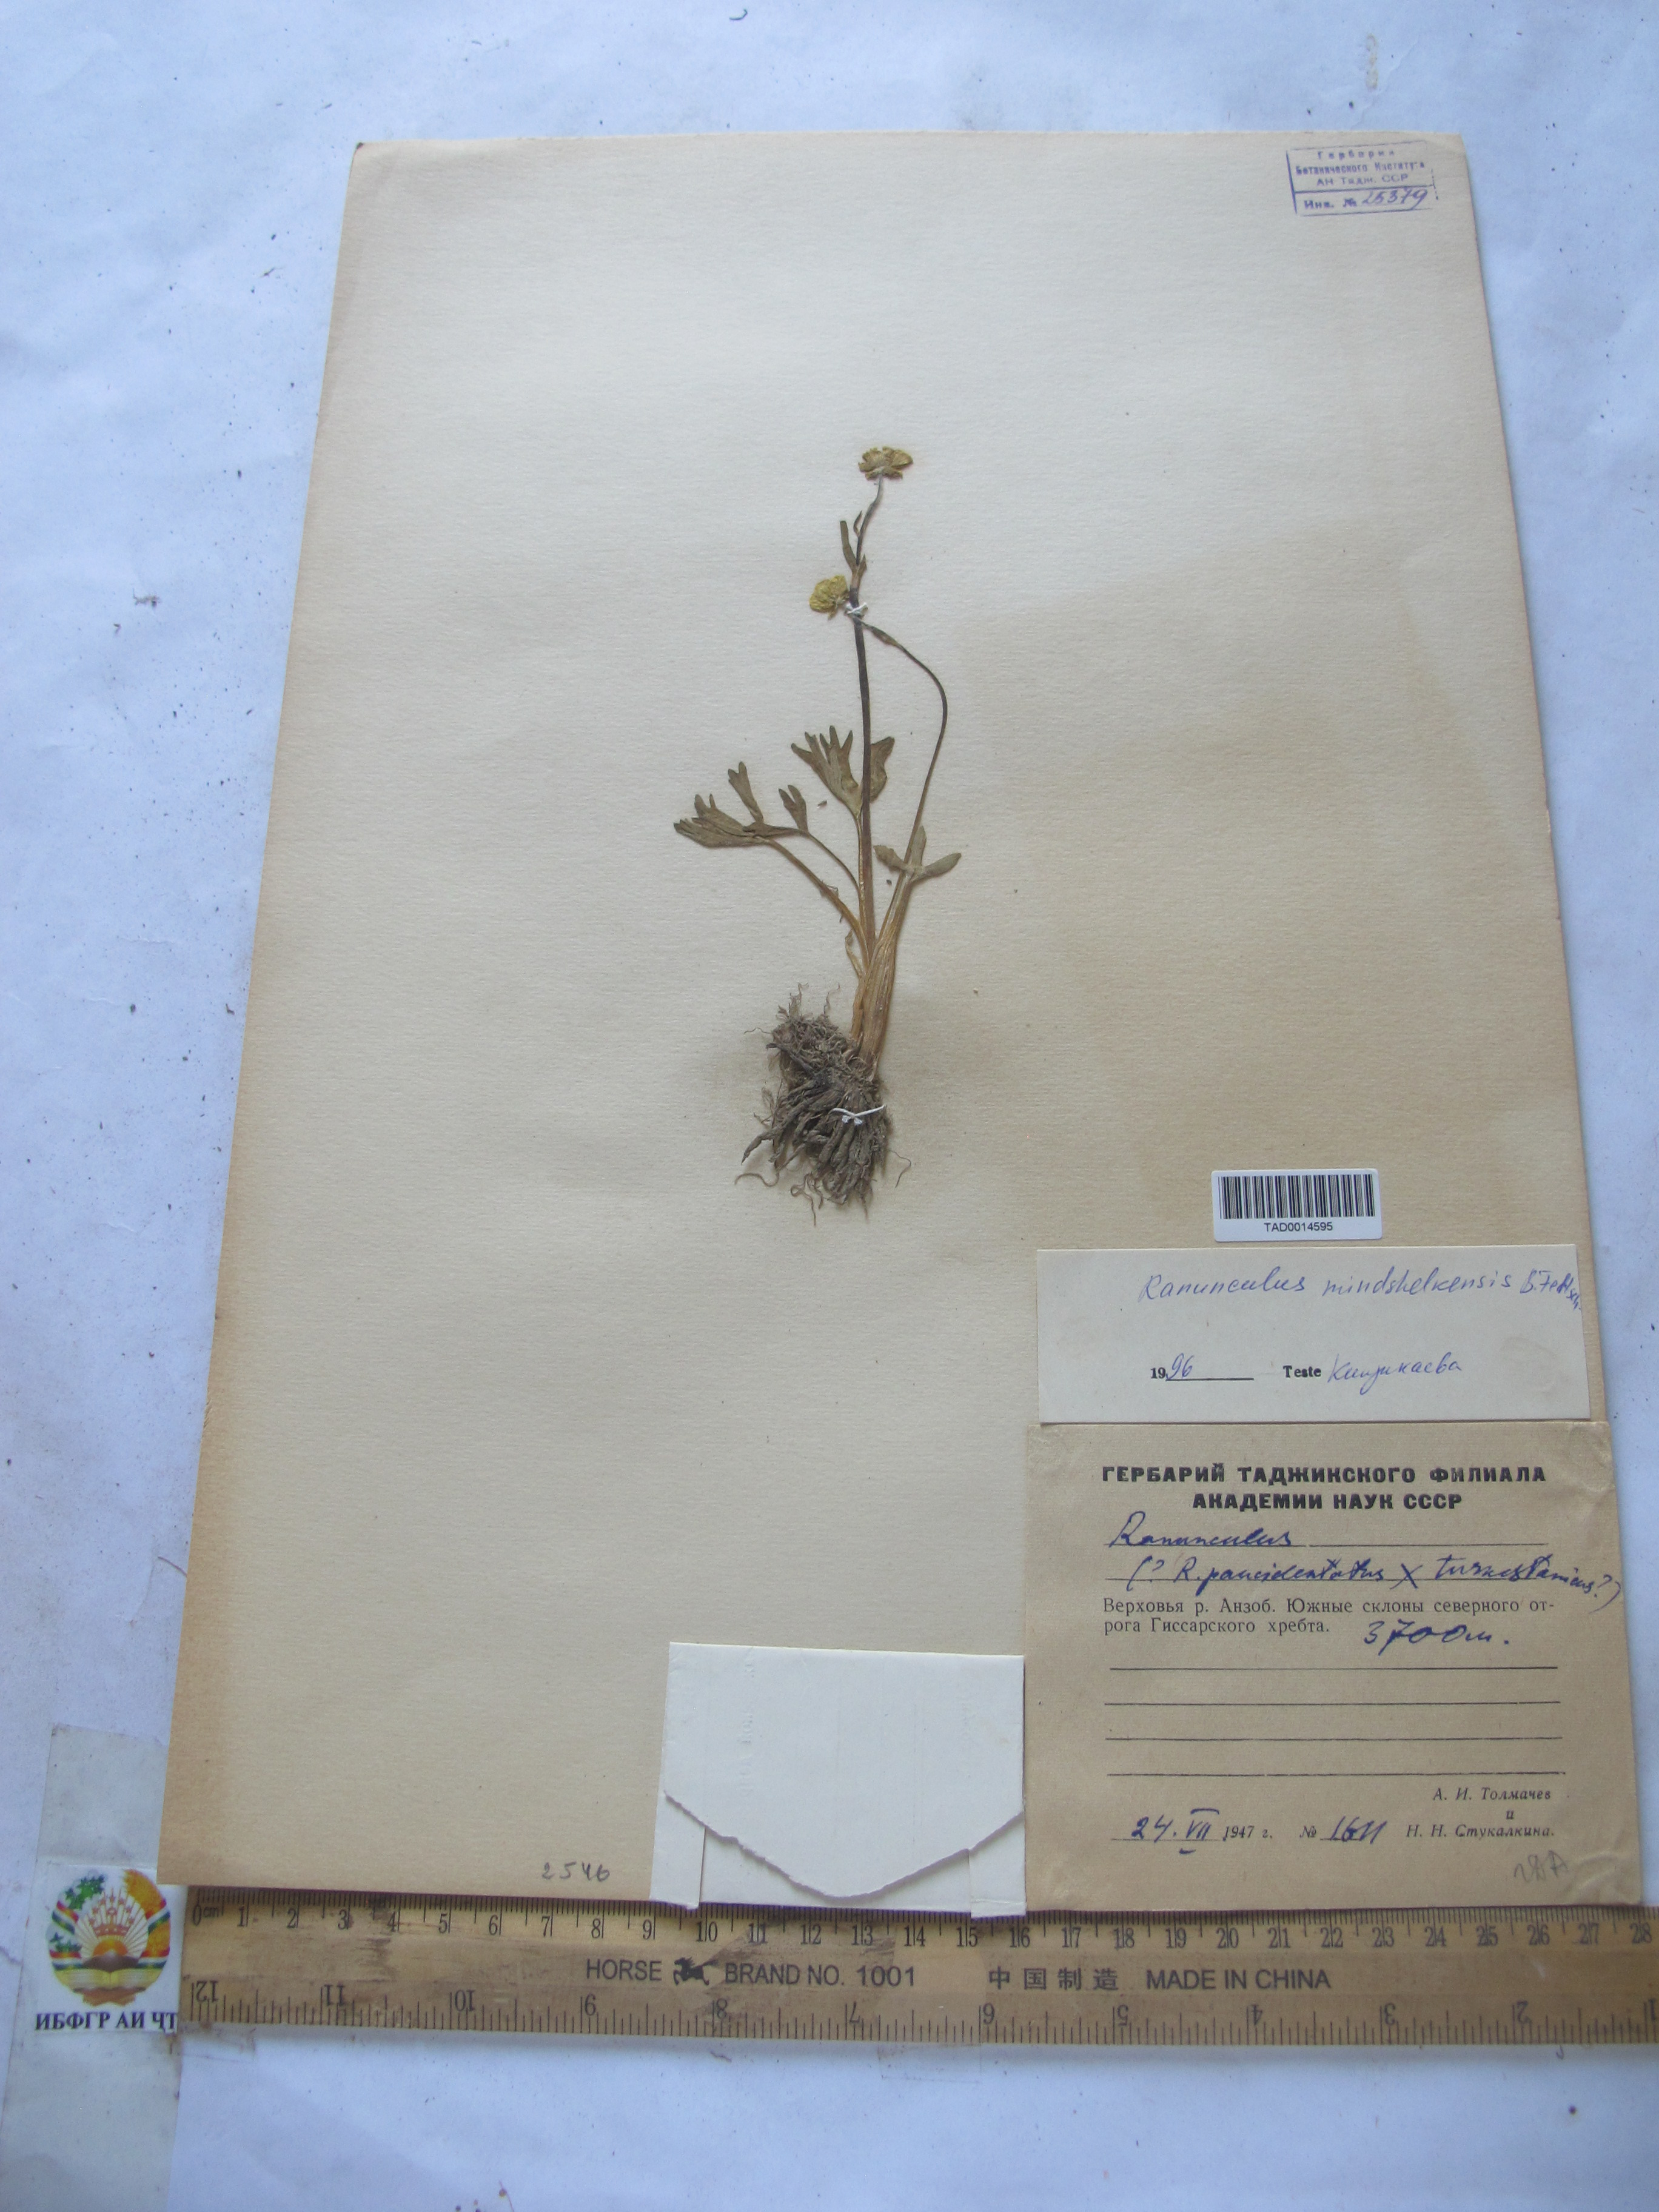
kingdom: Plantae
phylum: Tracheophyta
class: Magnoliopsida
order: Ranunculales
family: Ranunculaceae
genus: Ranunculus
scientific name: Ranunculus mindshelkensis
